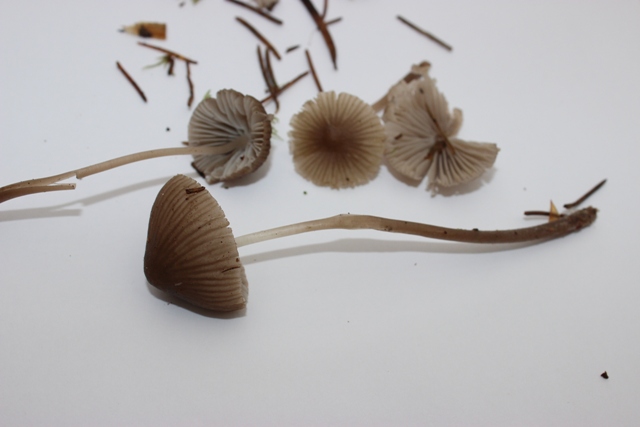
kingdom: Fungi
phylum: Basidiomycota
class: Agaricomycetes
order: Agaricales
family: Mycenaceae
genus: Mycena
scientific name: Mycena leptocephala
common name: klor-huesvamp
